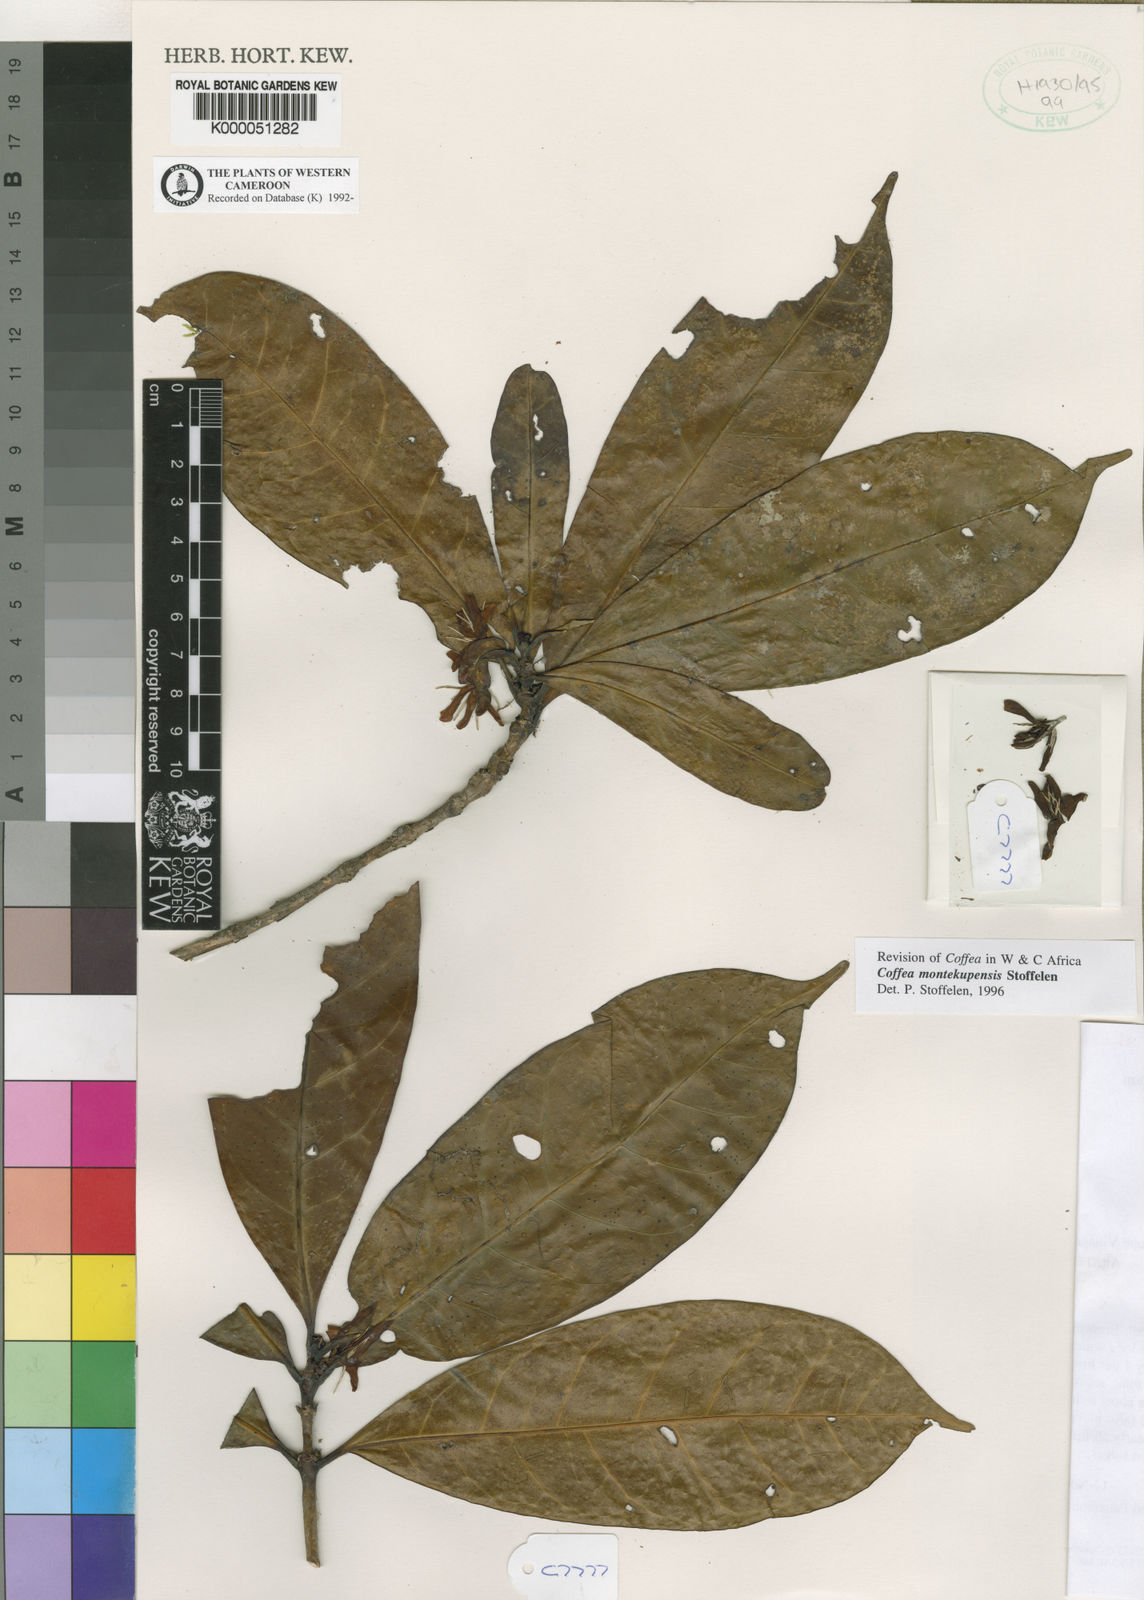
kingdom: Plantae
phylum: Tracheophyta
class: Magnoliopsida
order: Gentianales
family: Rubiaceae
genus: Coffea
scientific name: Coffea montekupensis
